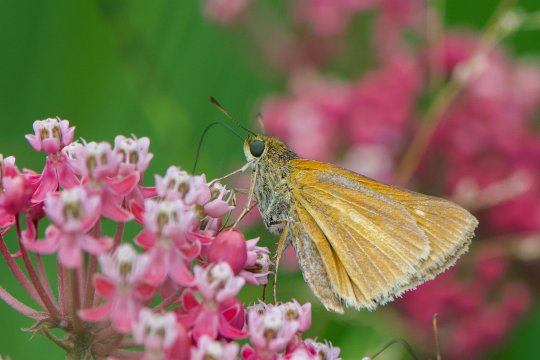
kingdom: Animalia
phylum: Arthropoda
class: Insecta
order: Lepidoptera
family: Hesperiidae
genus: Euphyes
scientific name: Euphyes dion
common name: Dion Skipper
